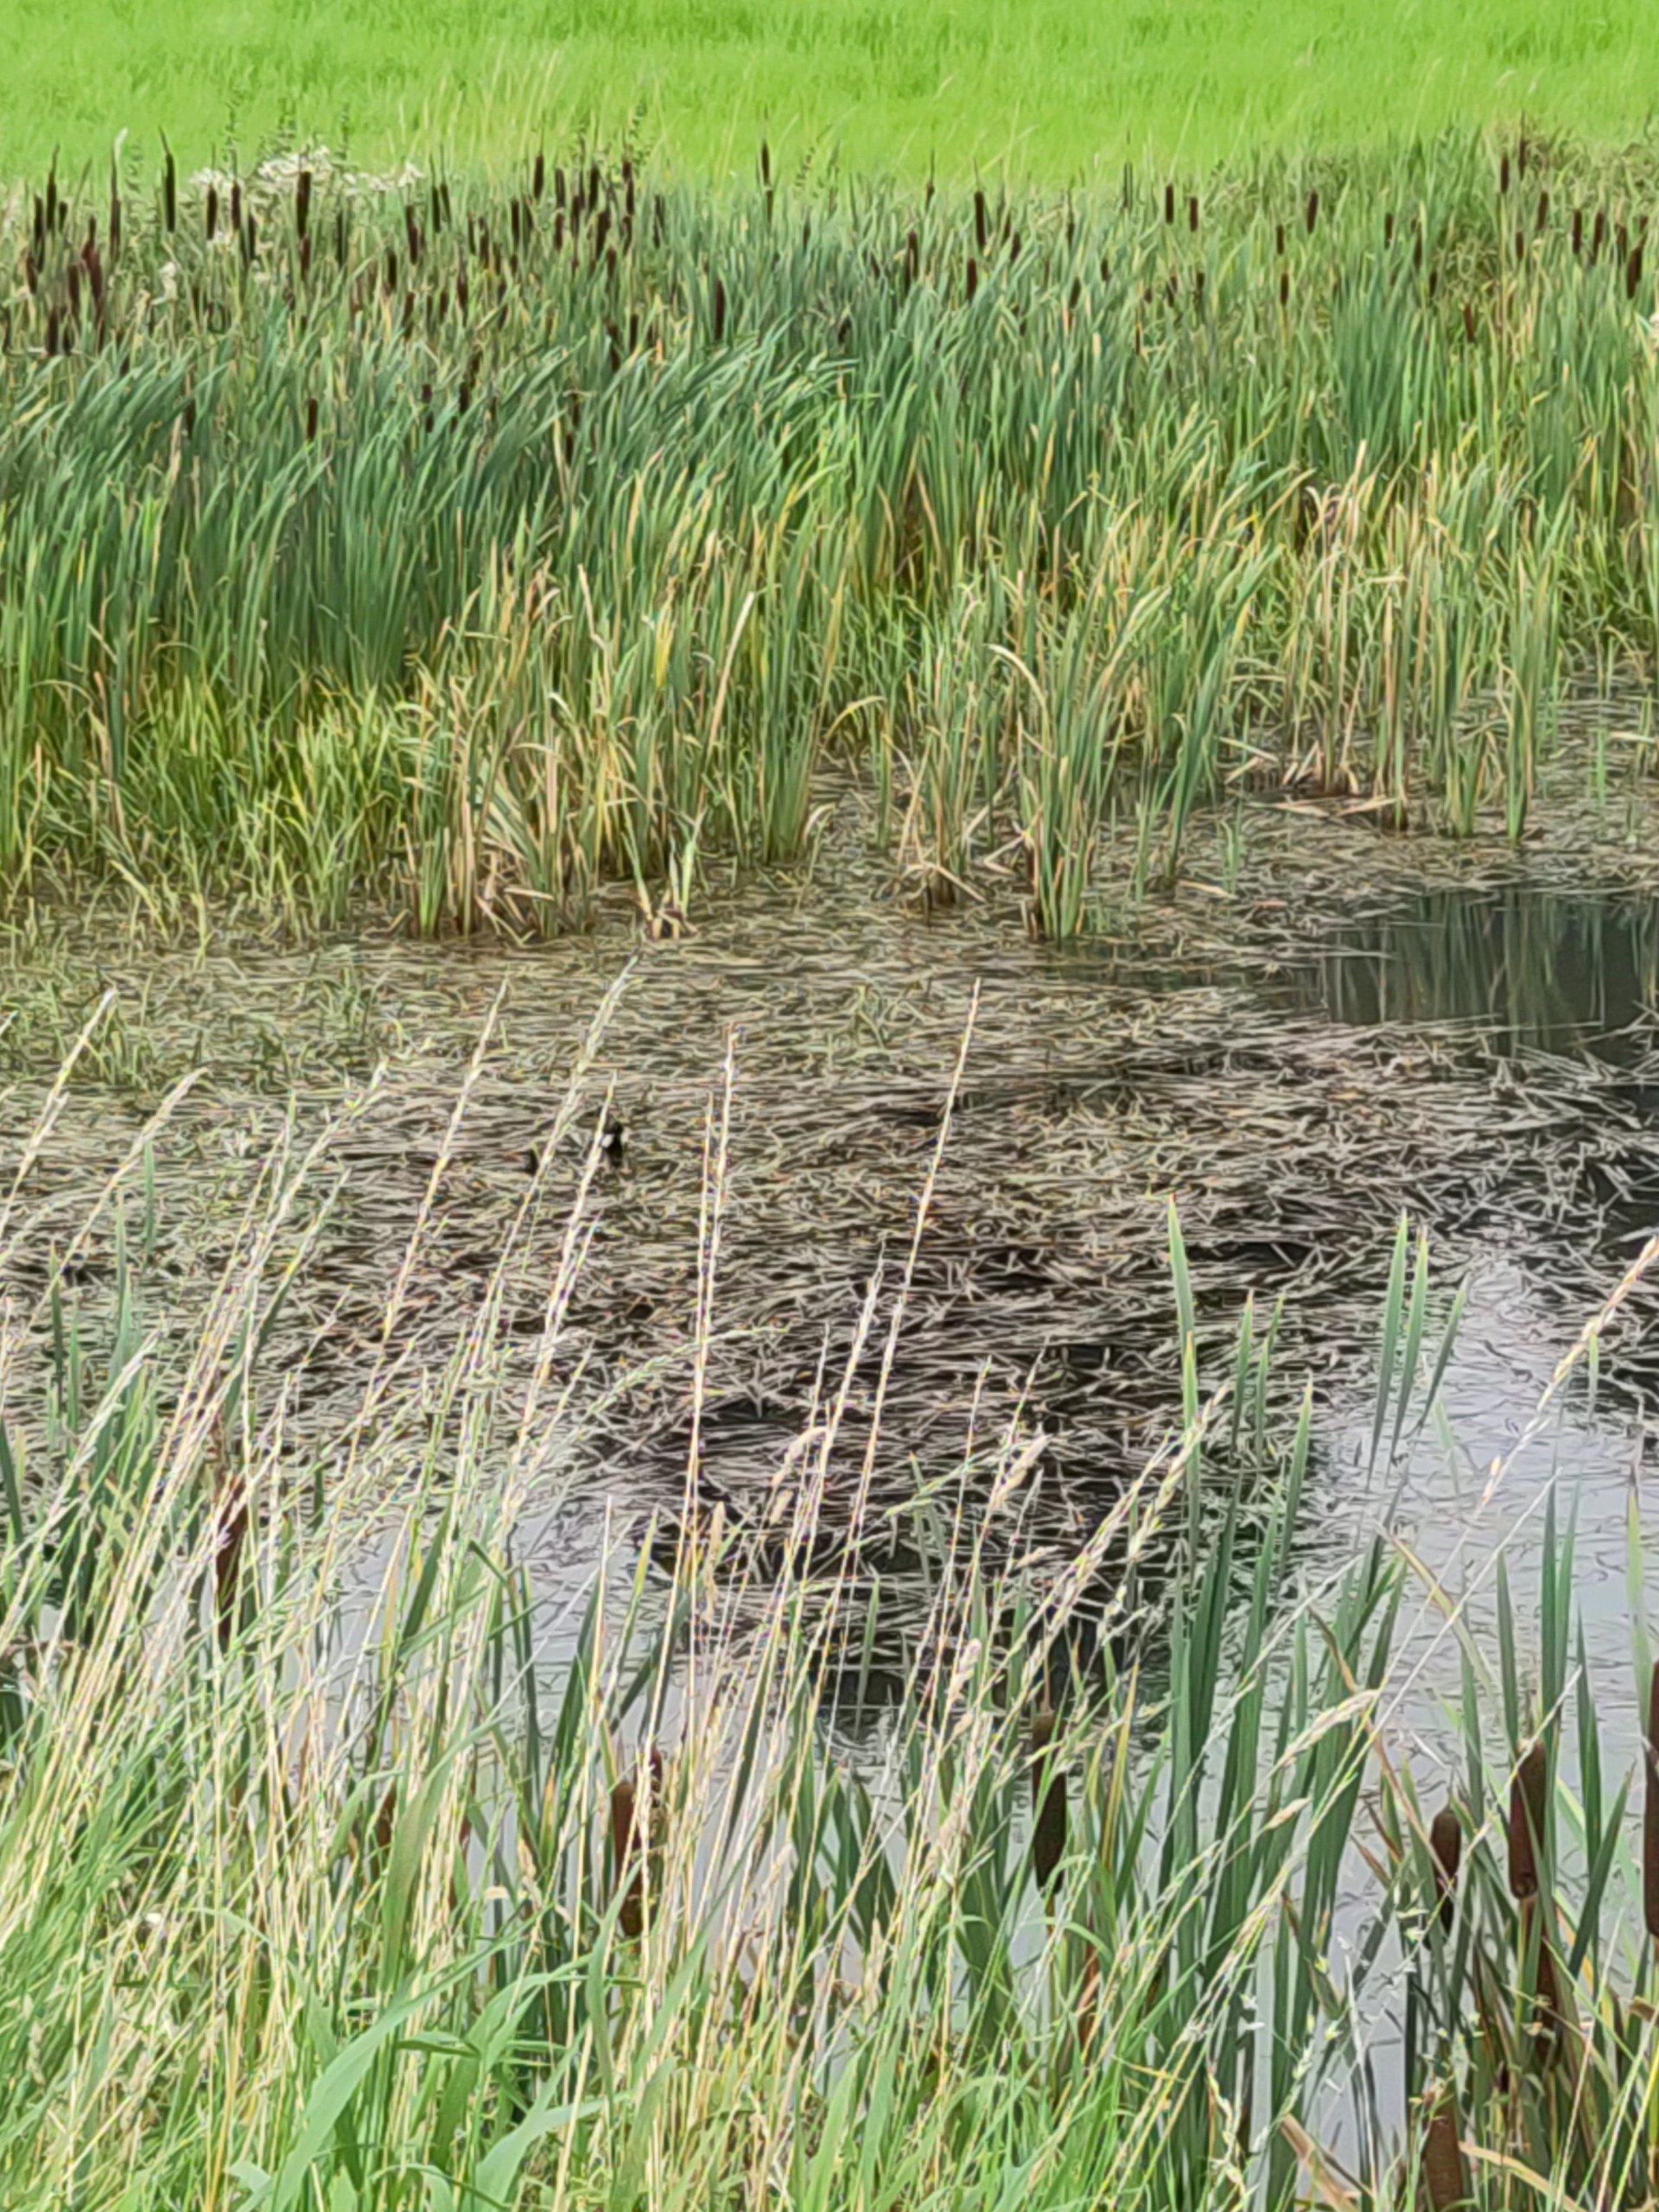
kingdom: Animalia
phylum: Chordata
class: Aves
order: Gruiformes
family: Rallidae
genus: Gallinula
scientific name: Gallinula chloropus
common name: Grønbenet rørhøne
